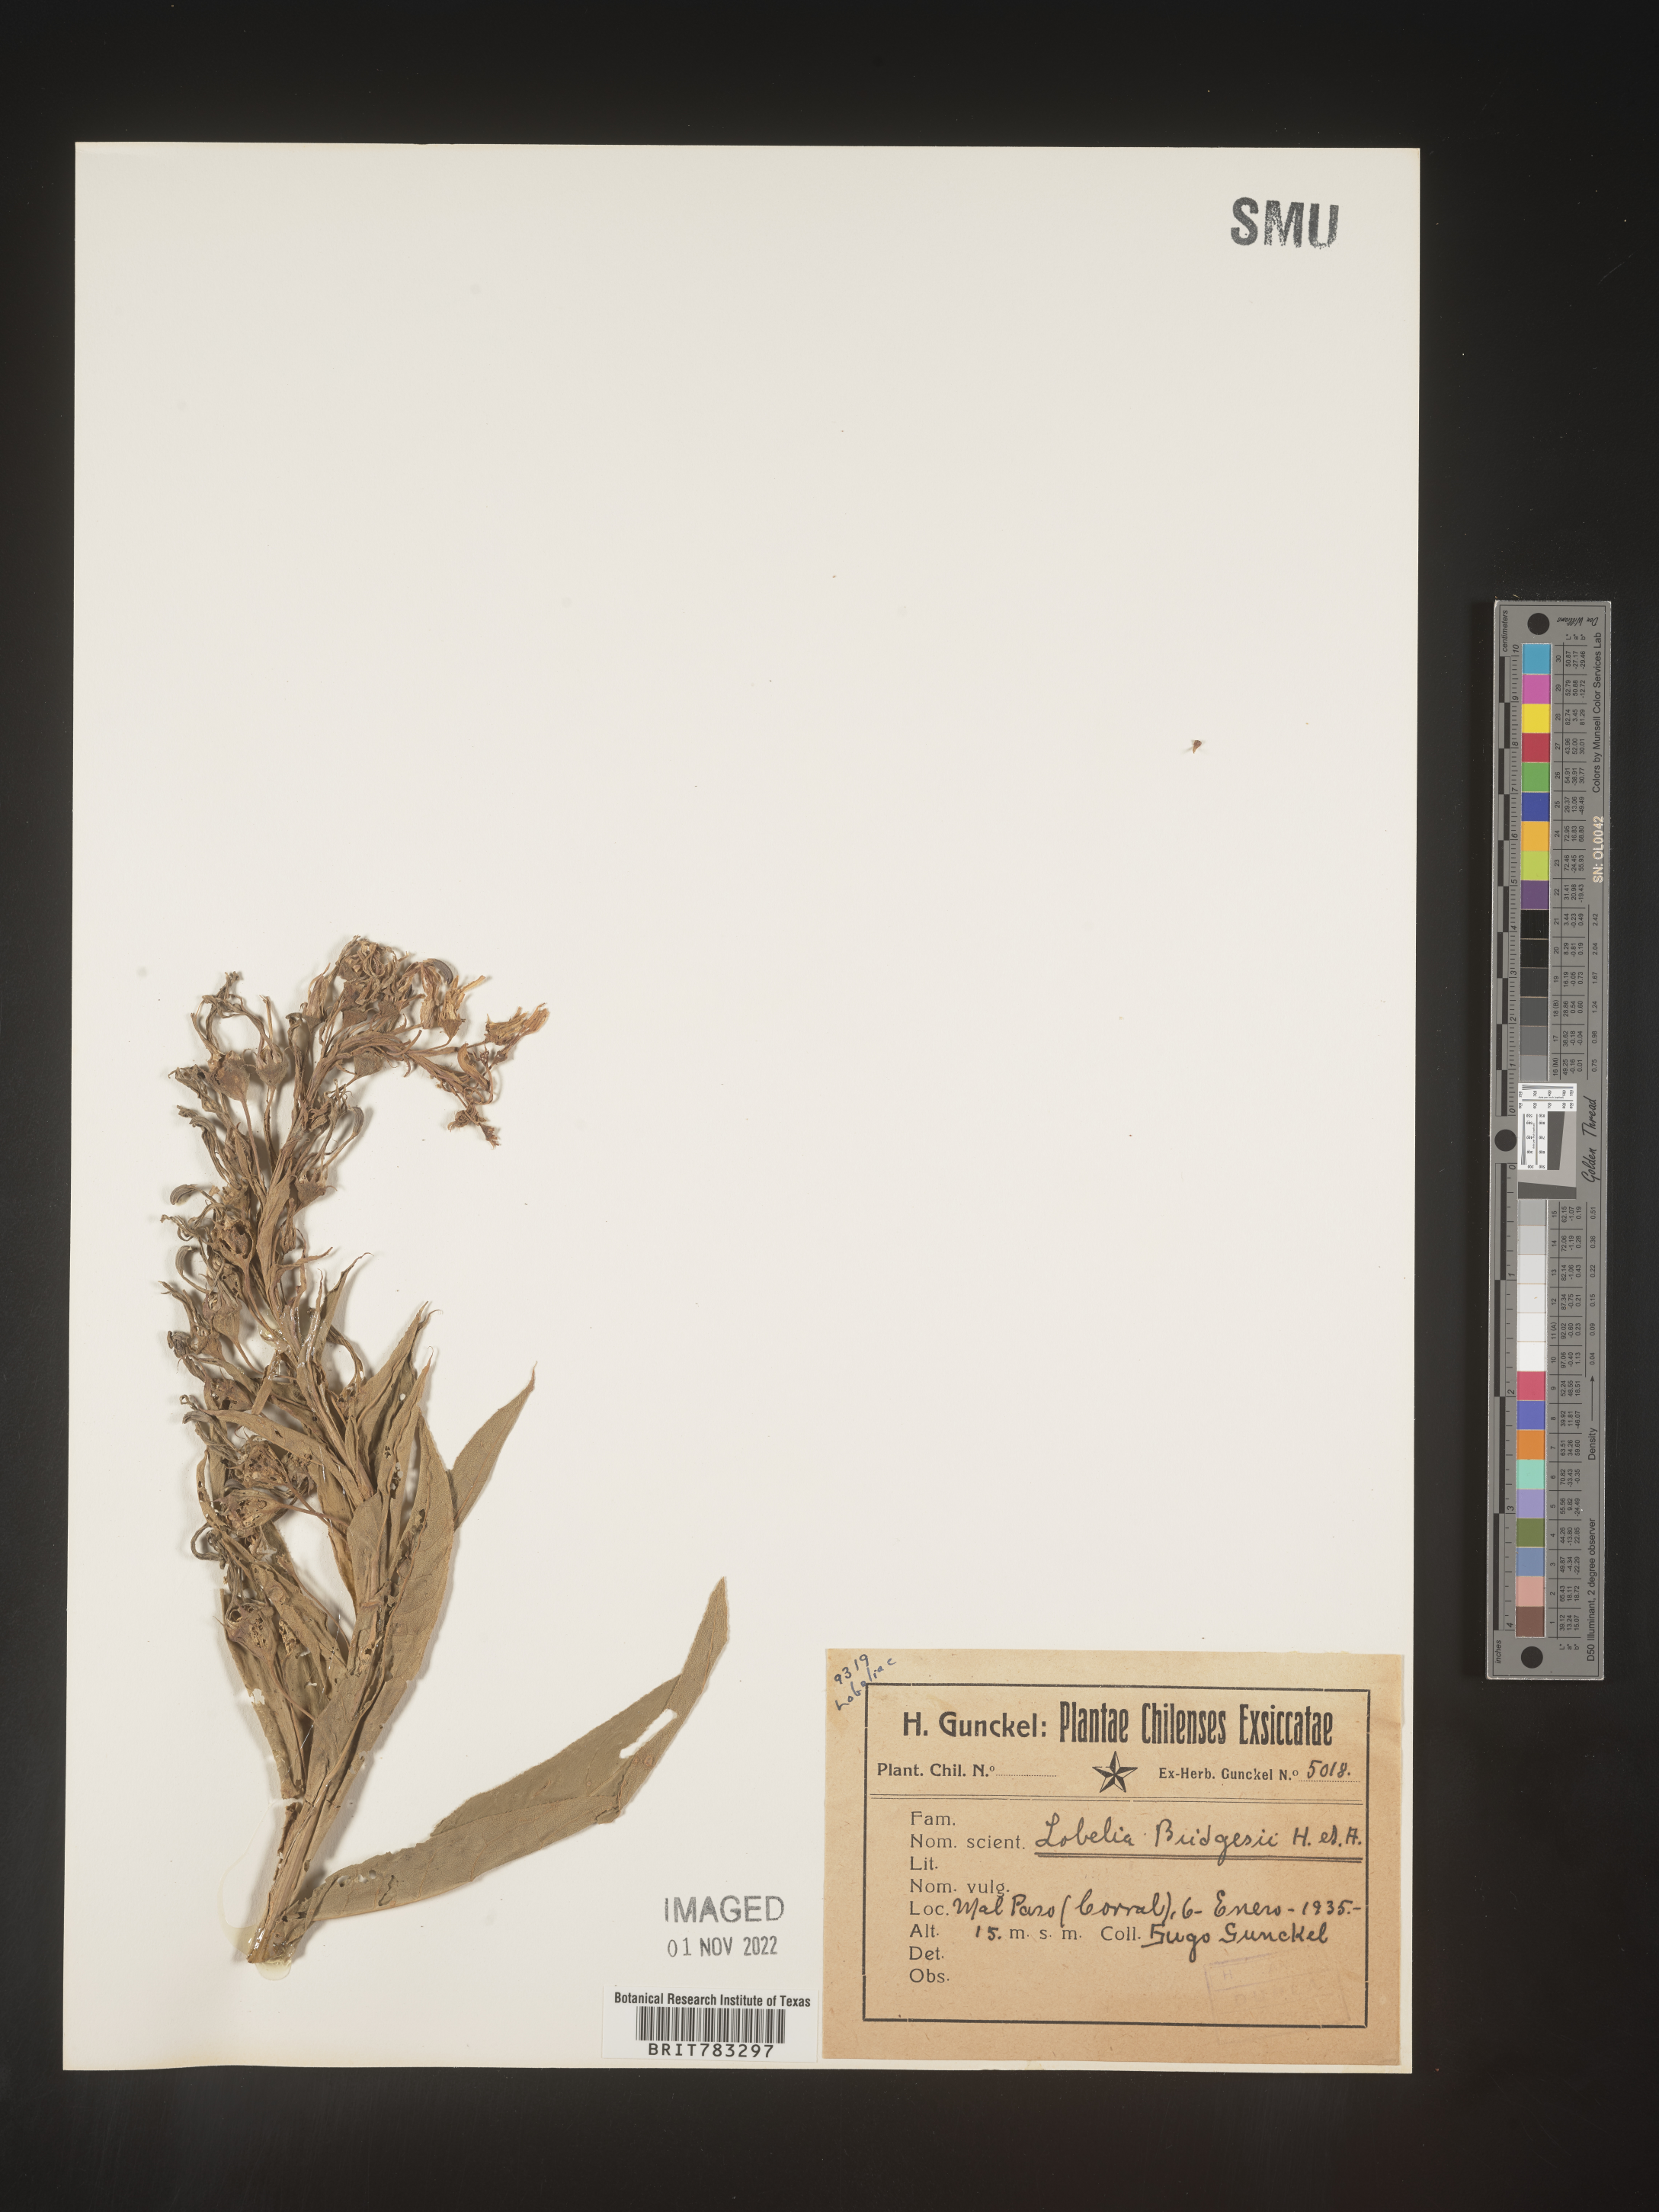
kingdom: Plantae
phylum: Tracheophyta
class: Magnoliopsida
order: Asterales
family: Campanulaceae
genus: Lobelia
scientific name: Lobelia
